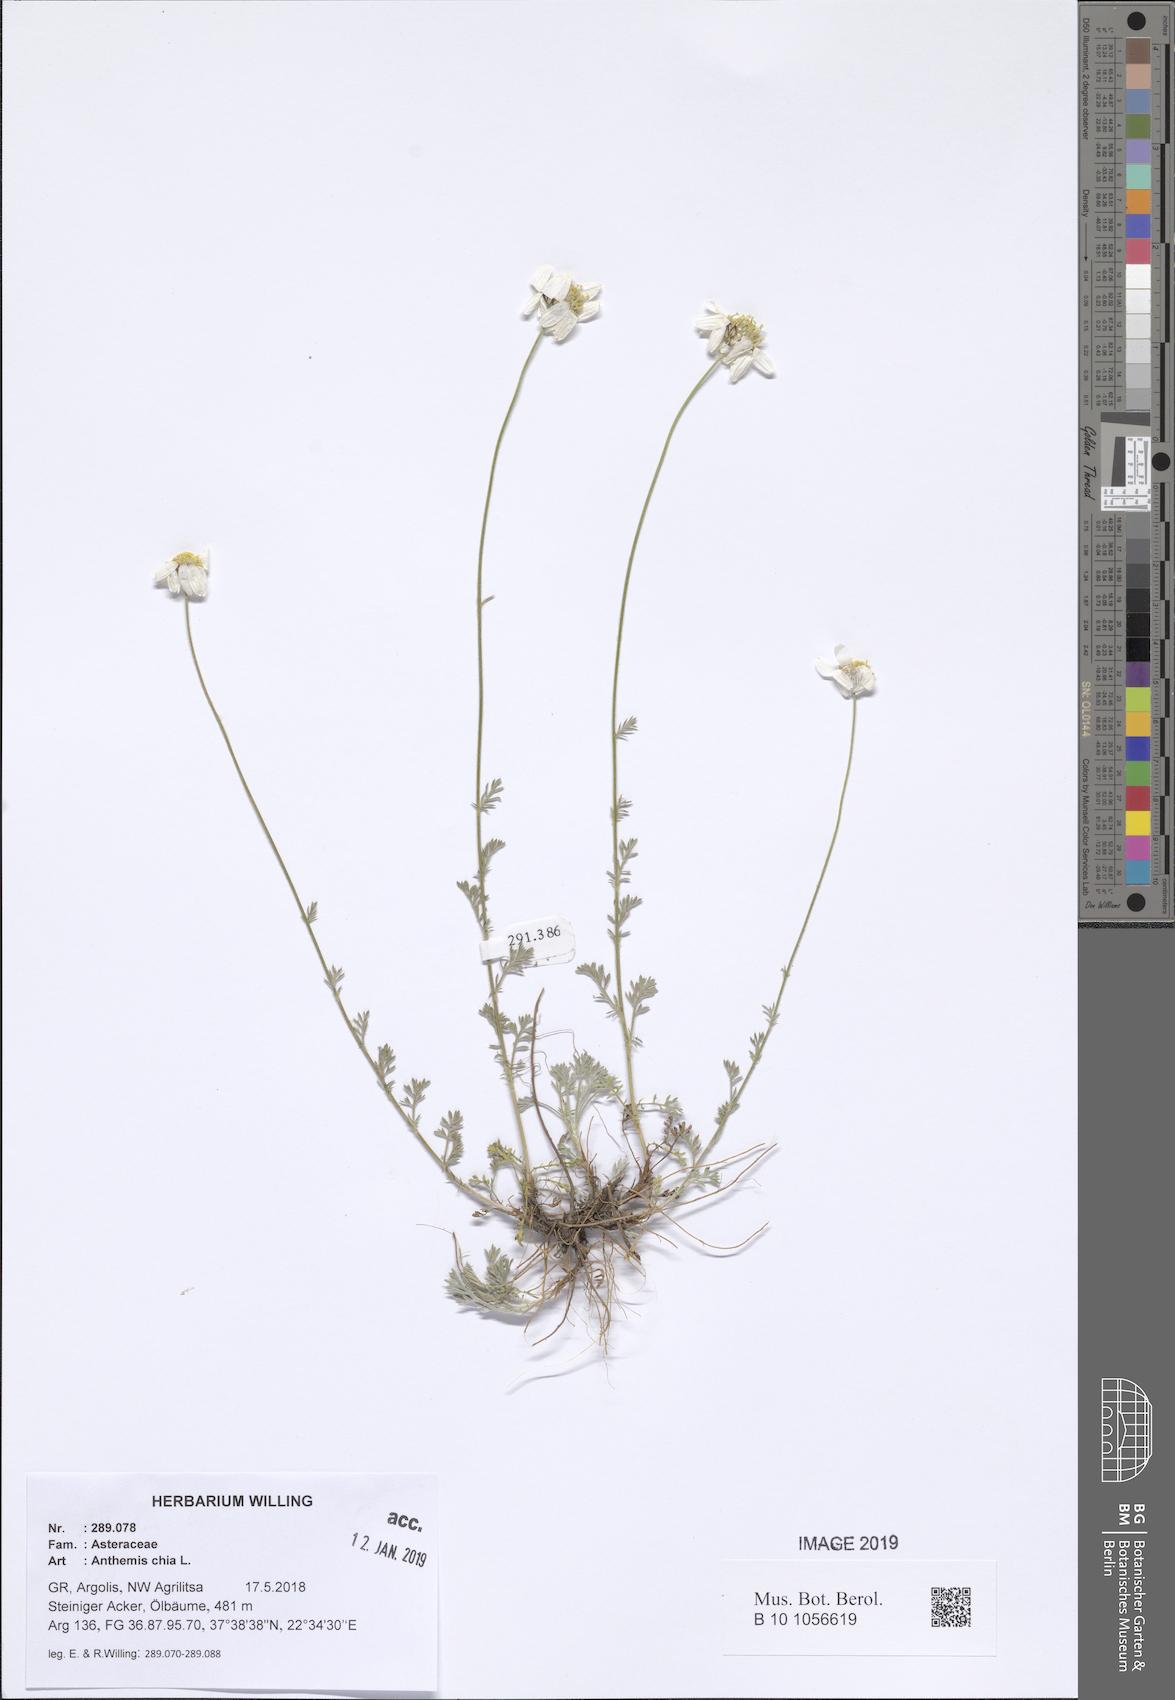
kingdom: Plantae
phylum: Tracheophyta
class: Magnoliopsida
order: Asterales
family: Asteraceae
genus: Anthemis
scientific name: Anthemis chia
